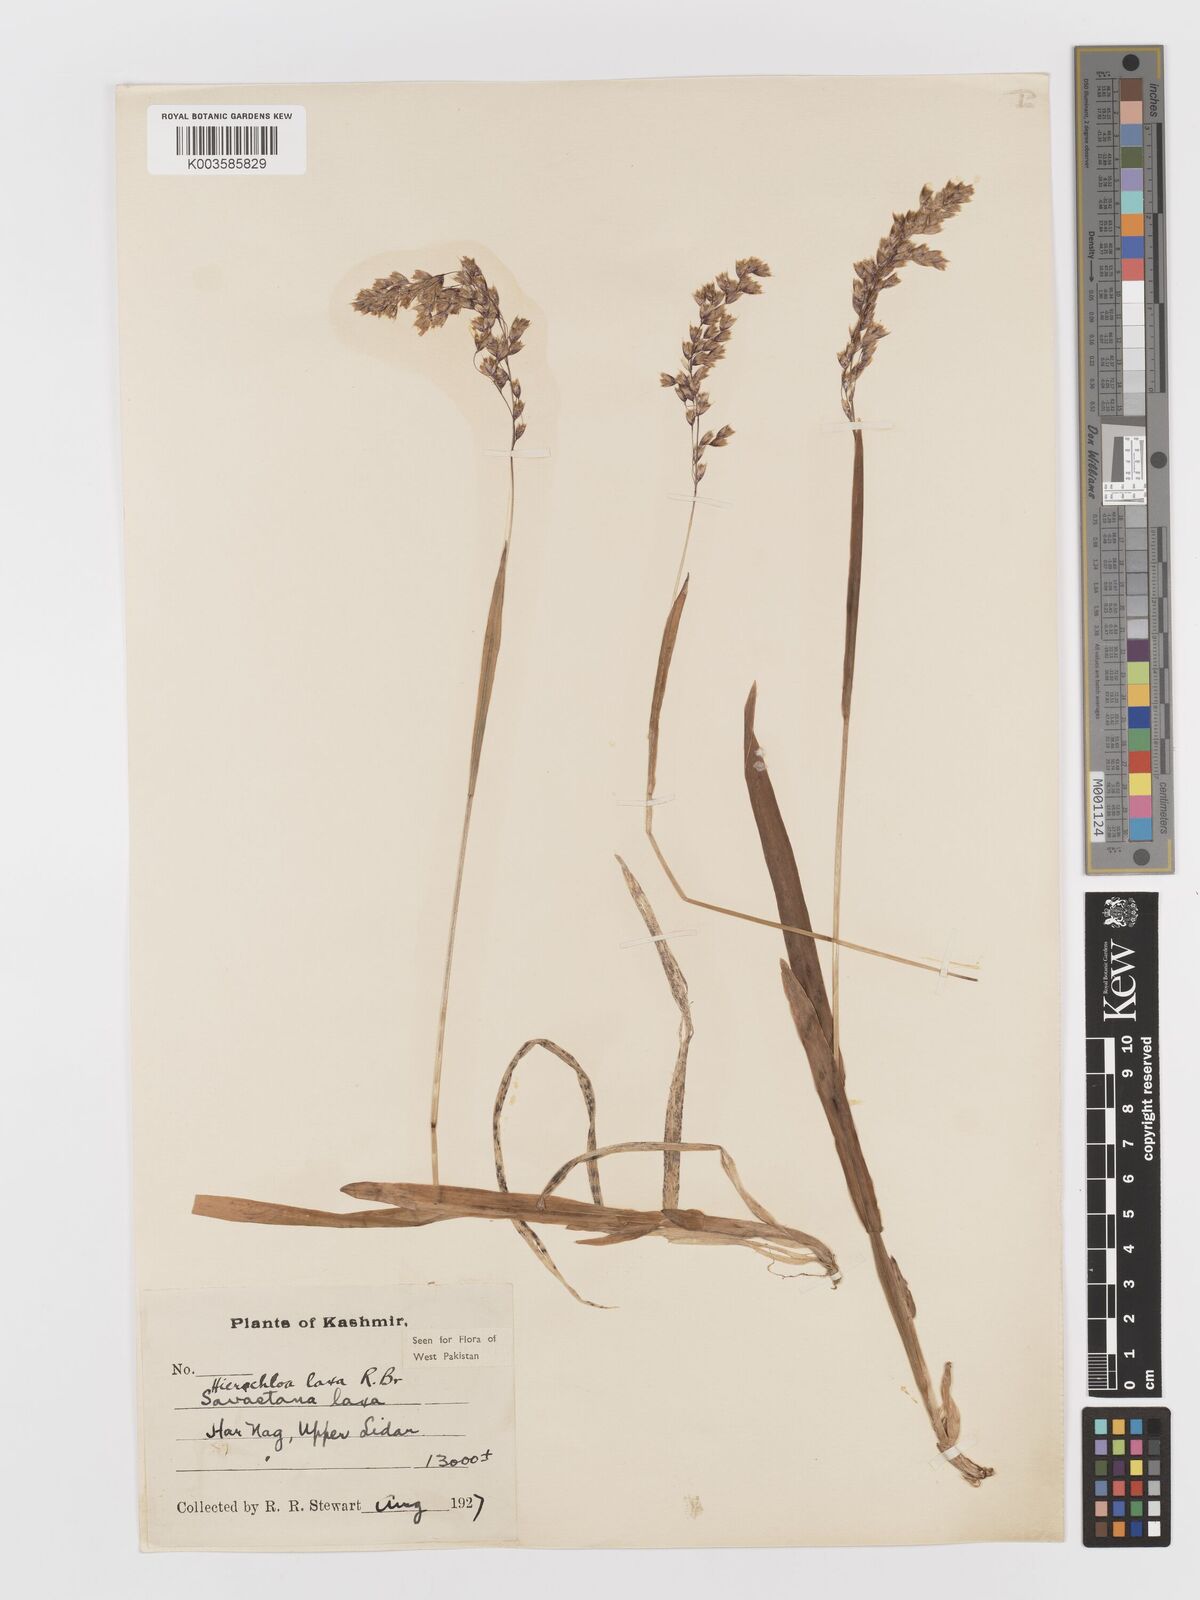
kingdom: Plantae
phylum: Tracheophyta
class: Liliopsida
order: Poales
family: Poaceae
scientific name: Poaceae
